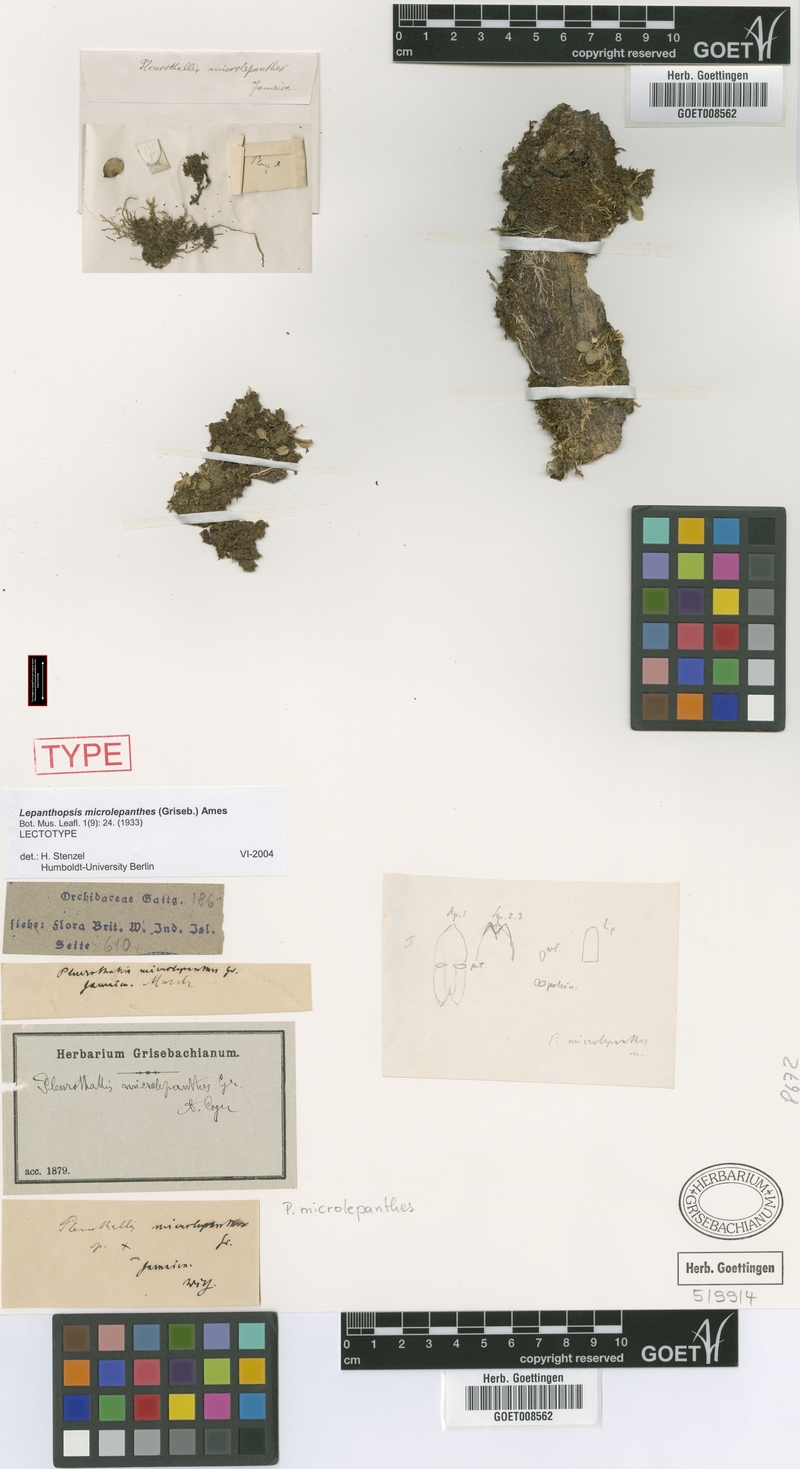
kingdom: Plantae
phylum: Tracheophyta
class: Liliopsida
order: Asparagales
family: Orchidaceae
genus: Lepanthopsis
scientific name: Lepanthopsis microlepanthes
